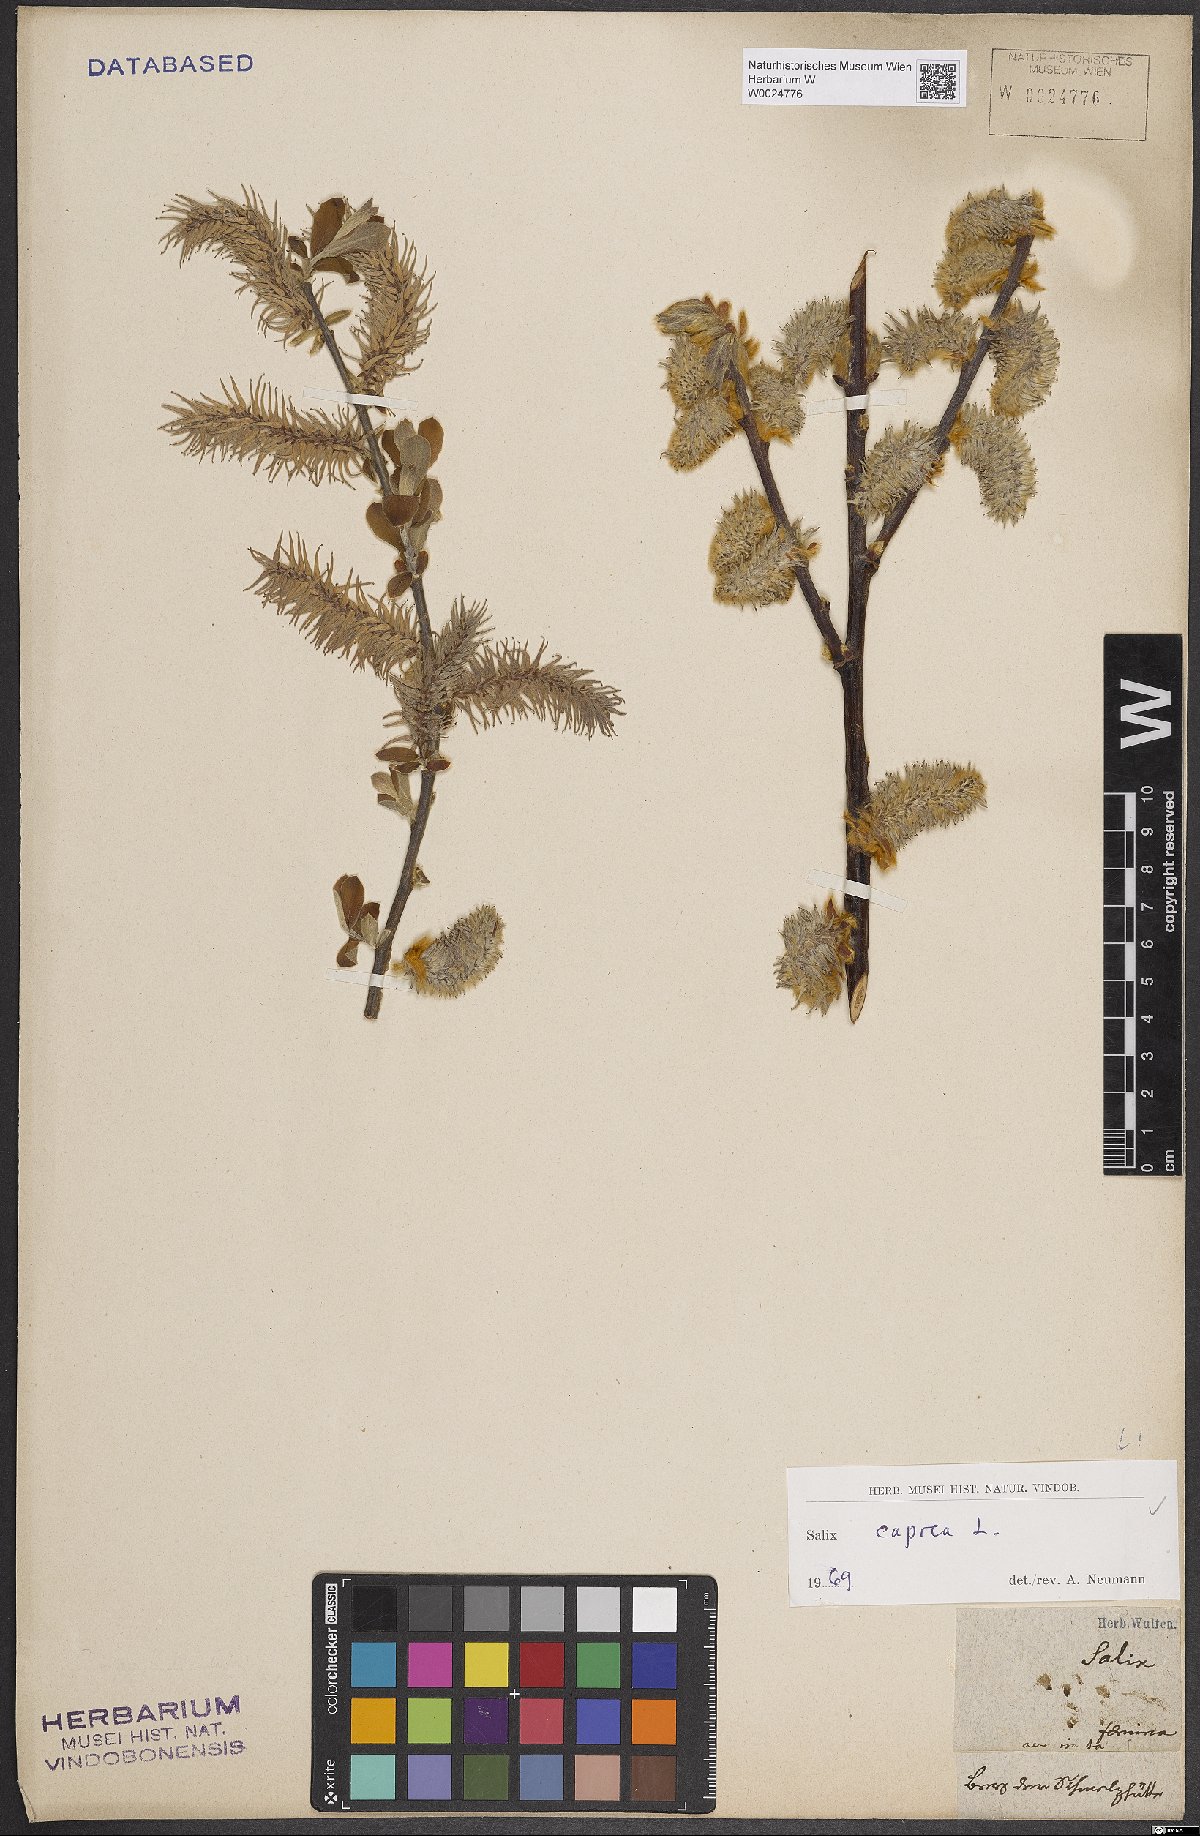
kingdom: Plantae
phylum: Tracheophyta
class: Magnoliopsida
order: Malpighiales
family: Salicaceae
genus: Salix
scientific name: Salix caprea
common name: Goat willow
